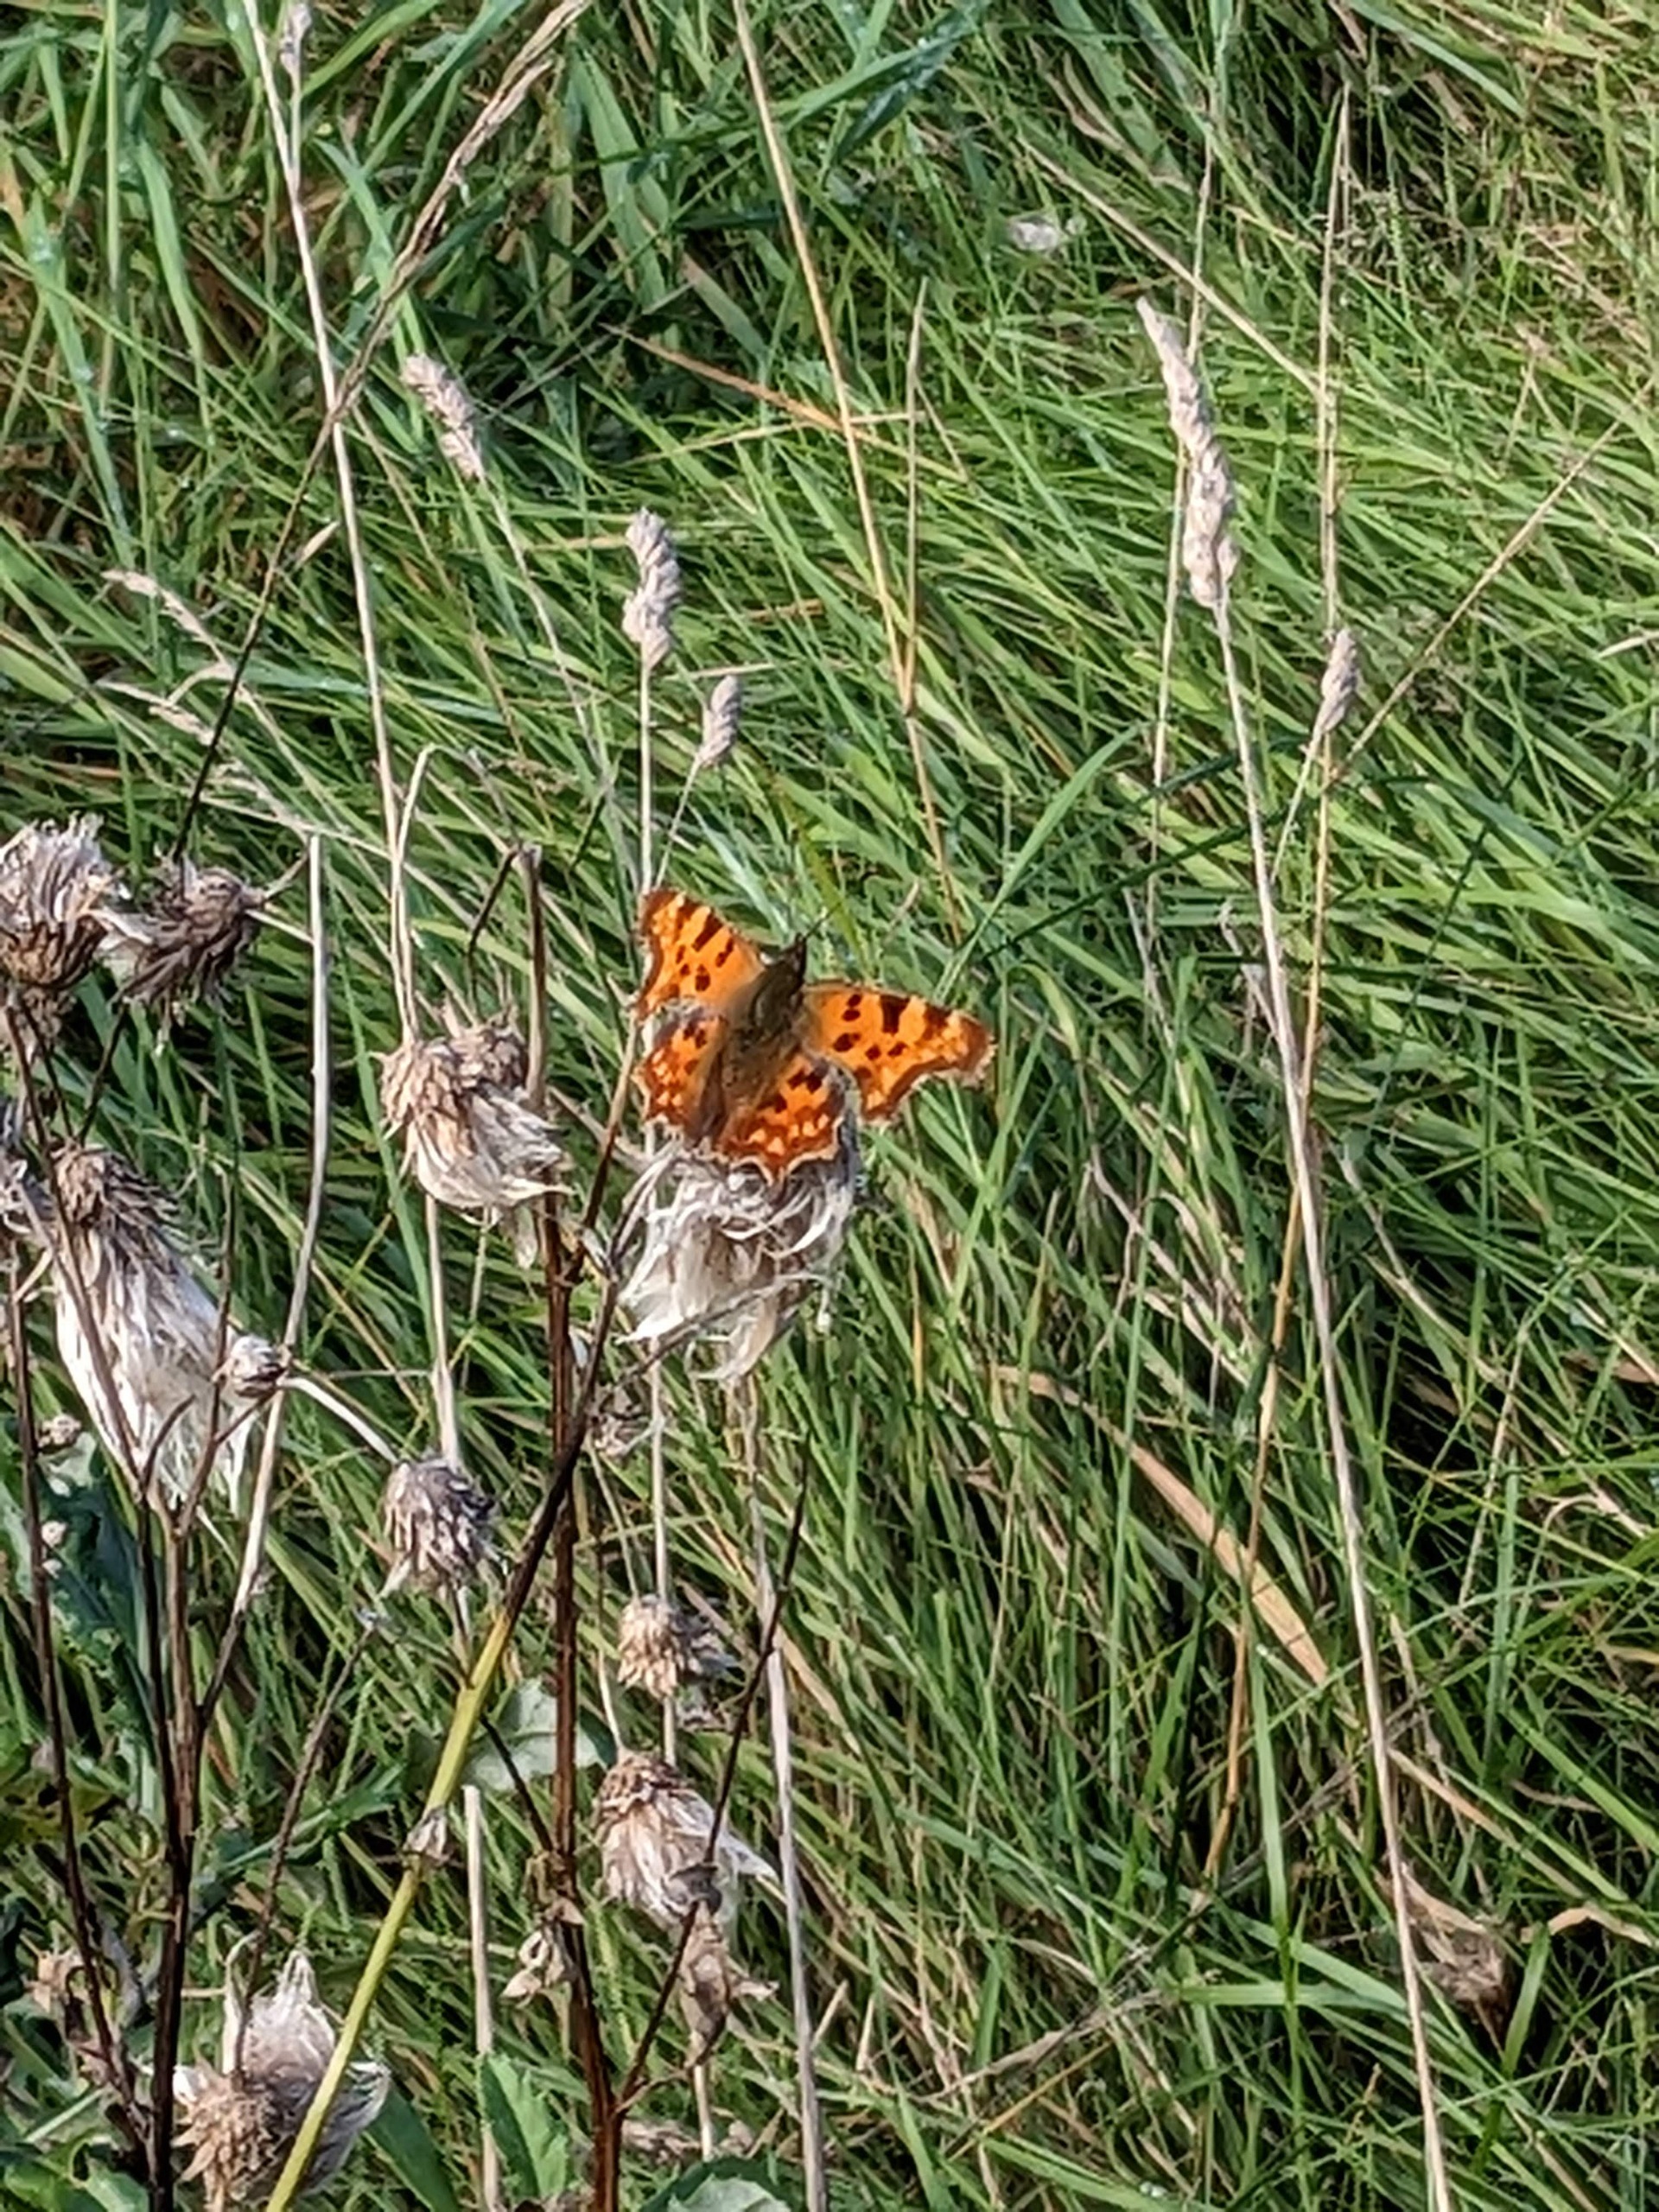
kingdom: Animalia
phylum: Arthropoda
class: Insecta
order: Lepidoptera
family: Nymphalidae
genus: Polygonia
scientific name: Polygonia c-album
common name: Det hvide C
